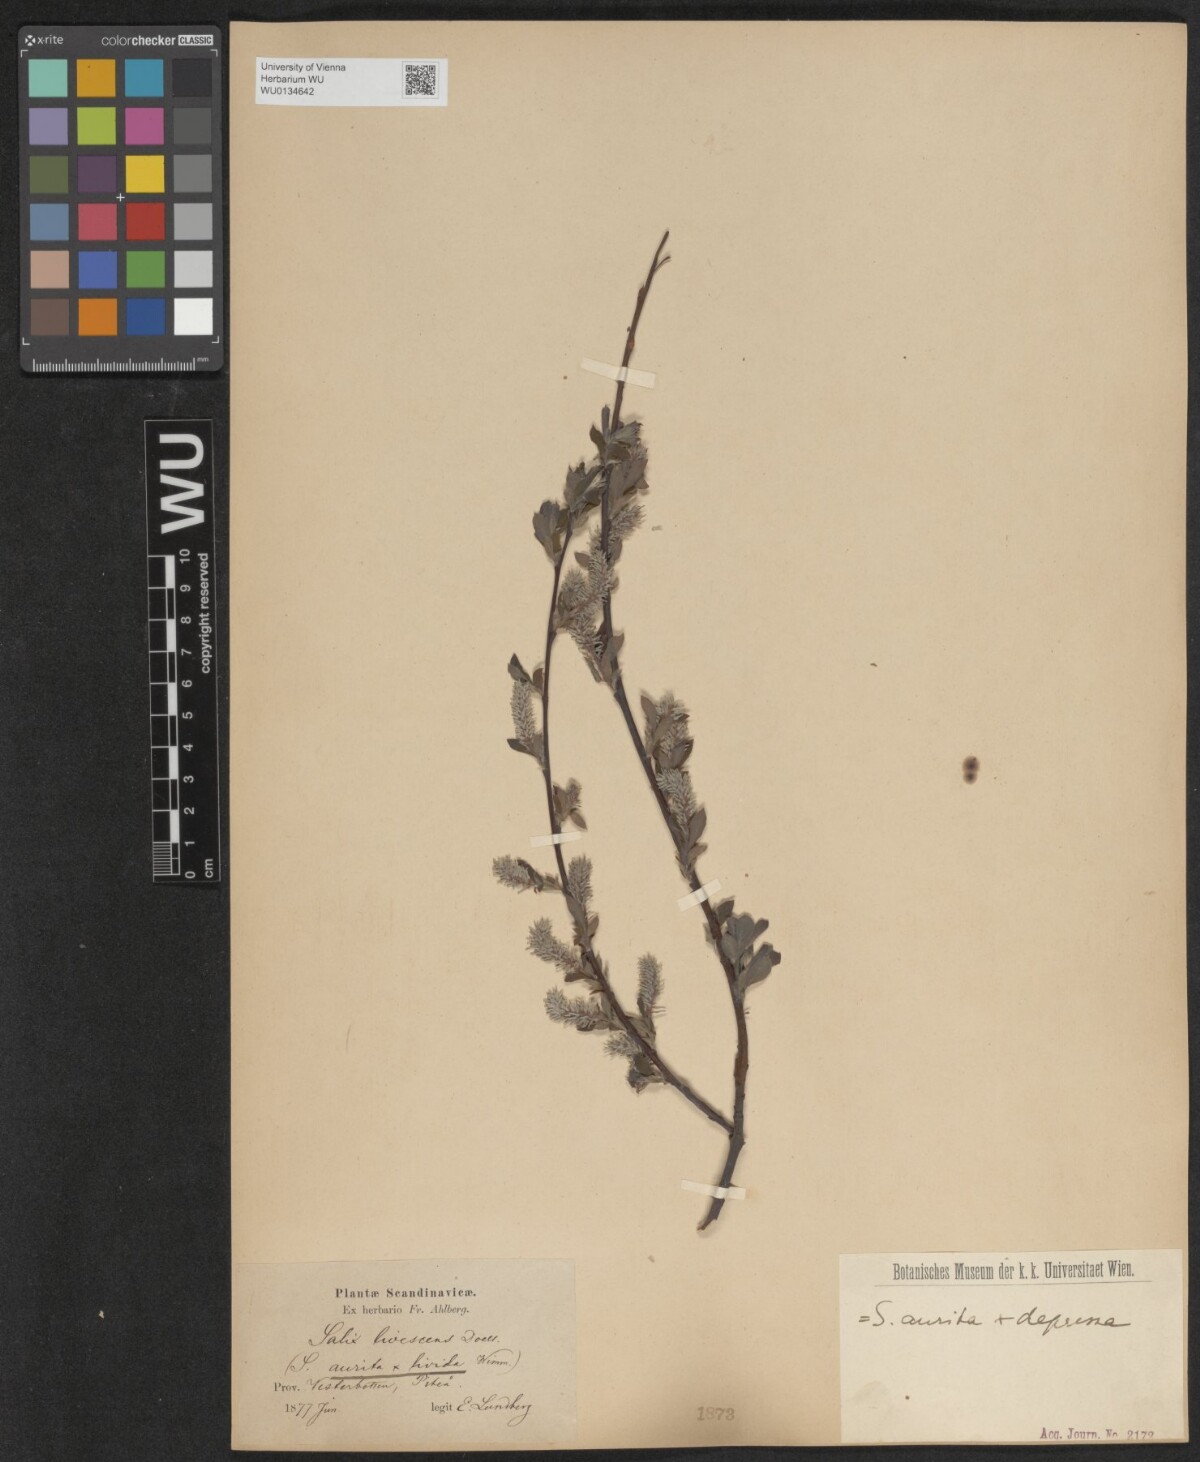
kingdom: Plantae
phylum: Tracheophyta
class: Magnoliopsida
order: Malpighiales
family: Salicaceae
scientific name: Salicaceae
